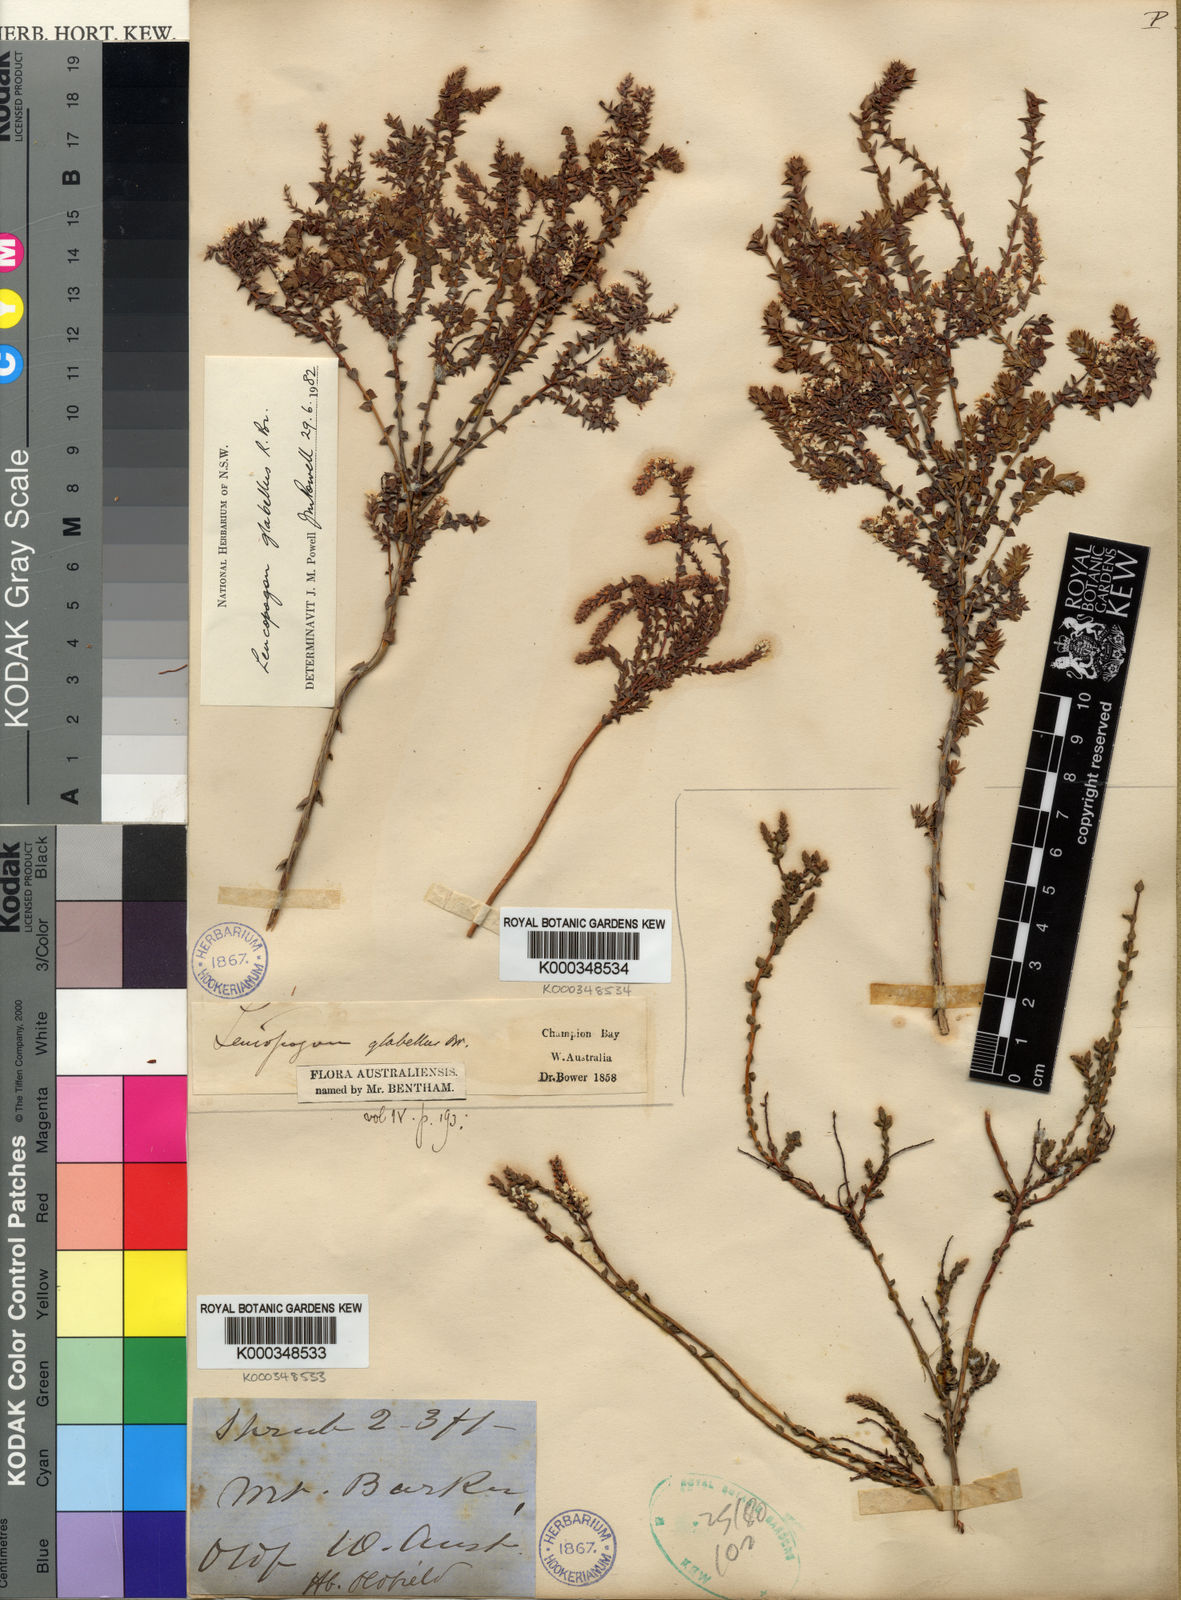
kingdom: Plantae
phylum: Tracheophyta
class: Magnoliopsida
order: Ericales
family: Ericaceae
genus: Leucopogon
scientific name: Leucopogon glabellus
